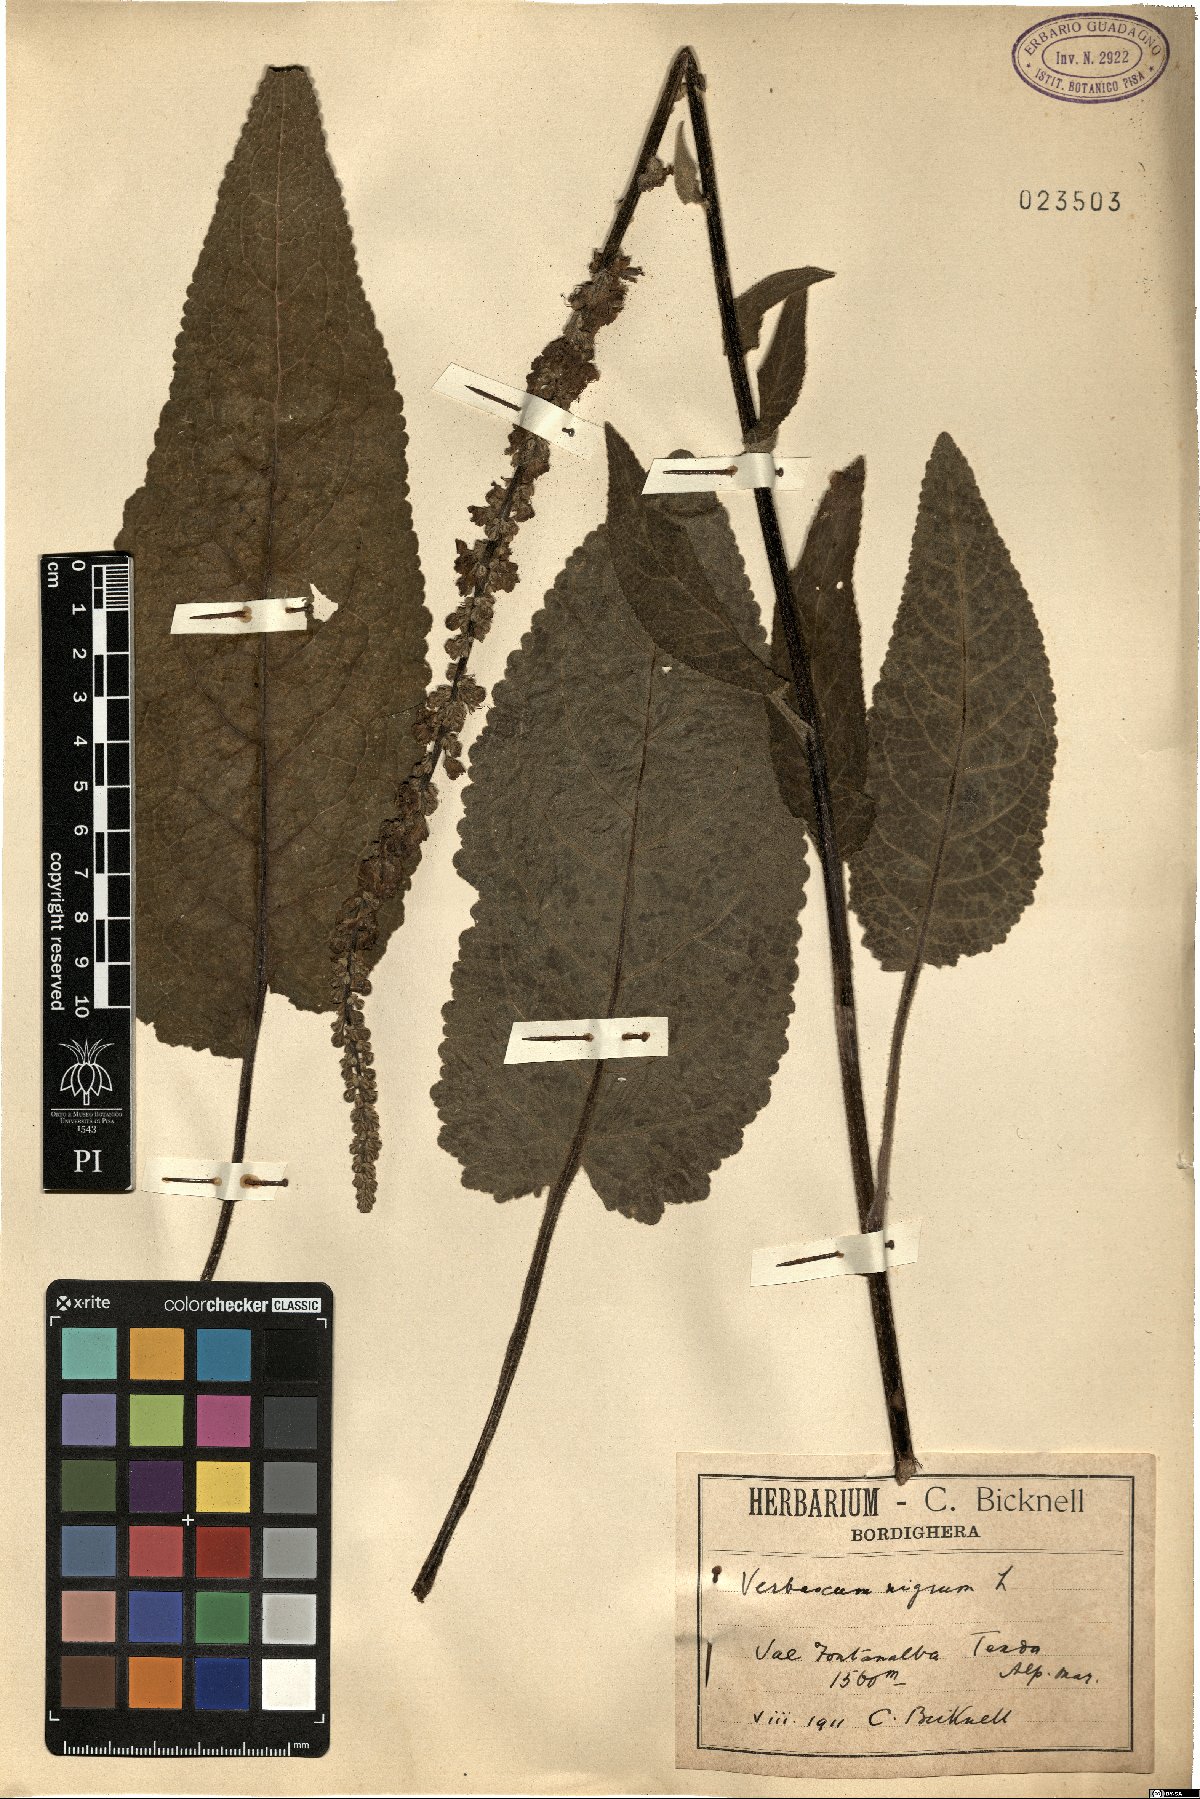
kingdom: Plantae
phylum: Tracheophyta
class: Magnoliopsida
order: Lamiales
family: Scrophulariaceae
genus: Verbascum
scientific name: Verbascum nigrum
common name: Dark mullein
